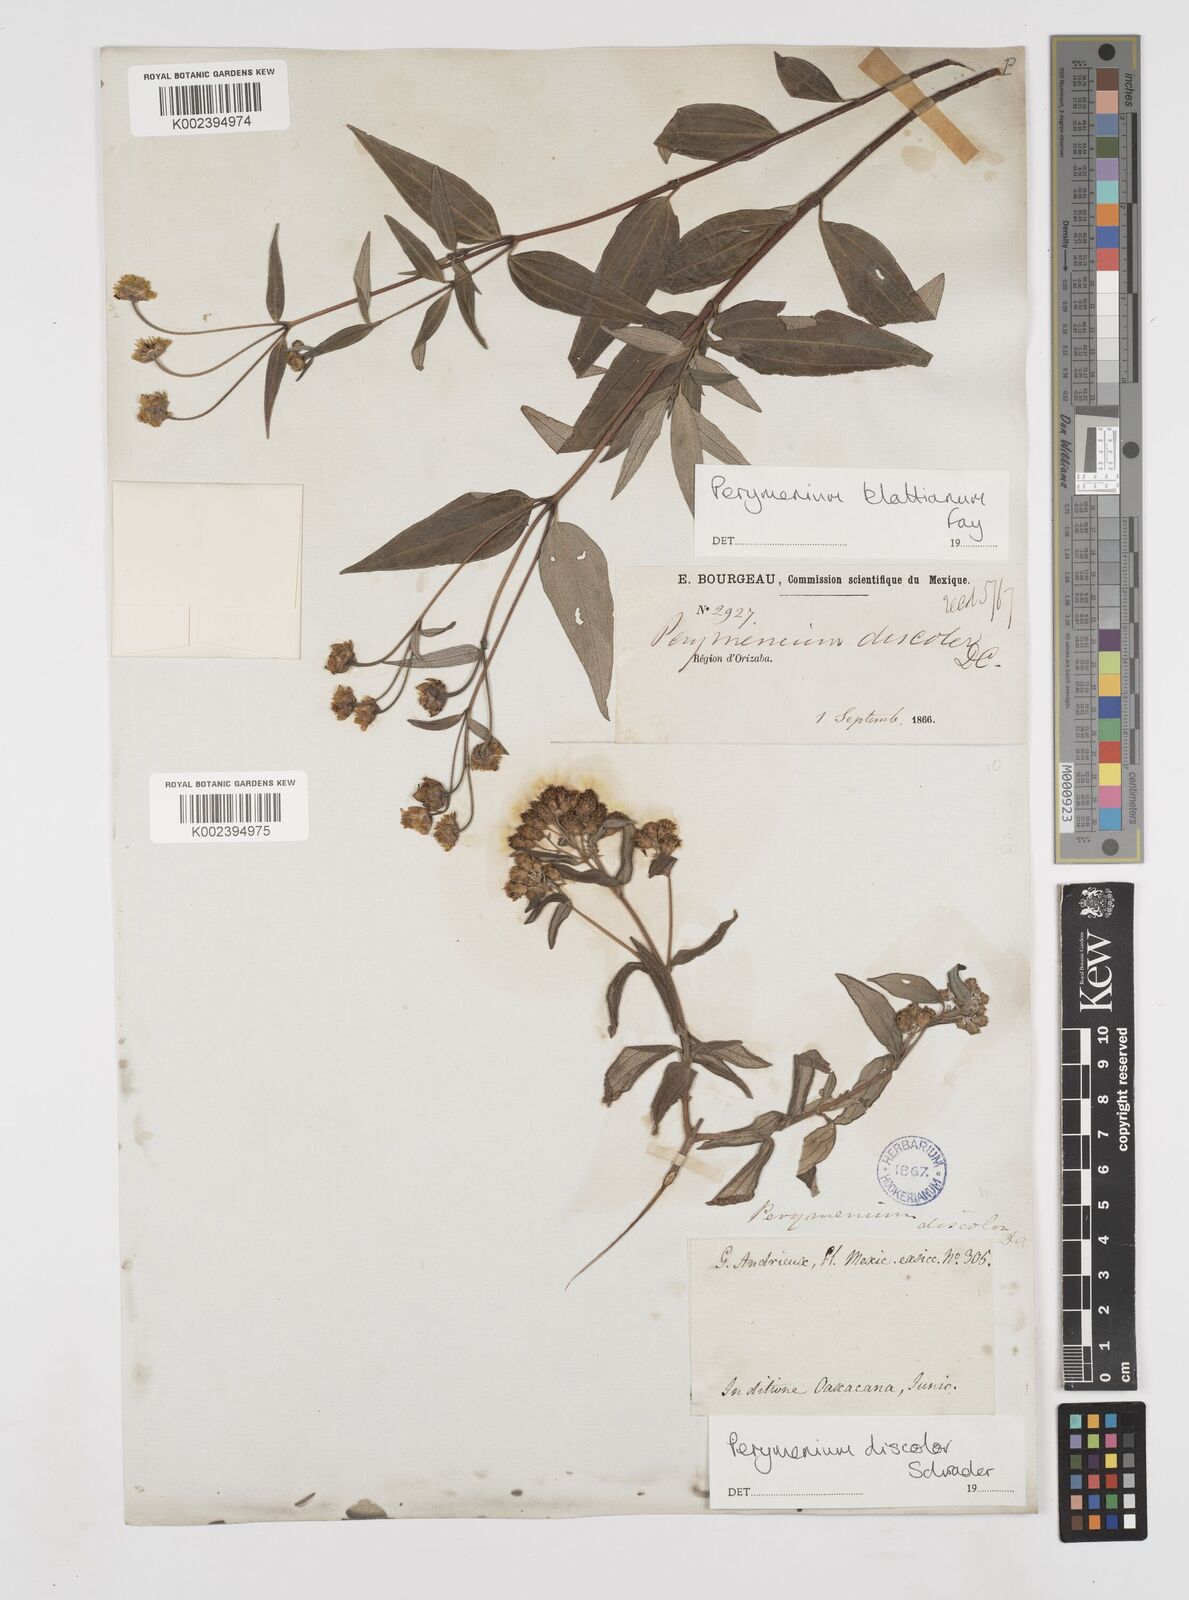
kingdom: Plantae
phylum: Tracheophyta
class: Magnoliopsida
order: Asterales
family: Asteraceae
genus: Perymenium
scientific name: Perymenium discolor
